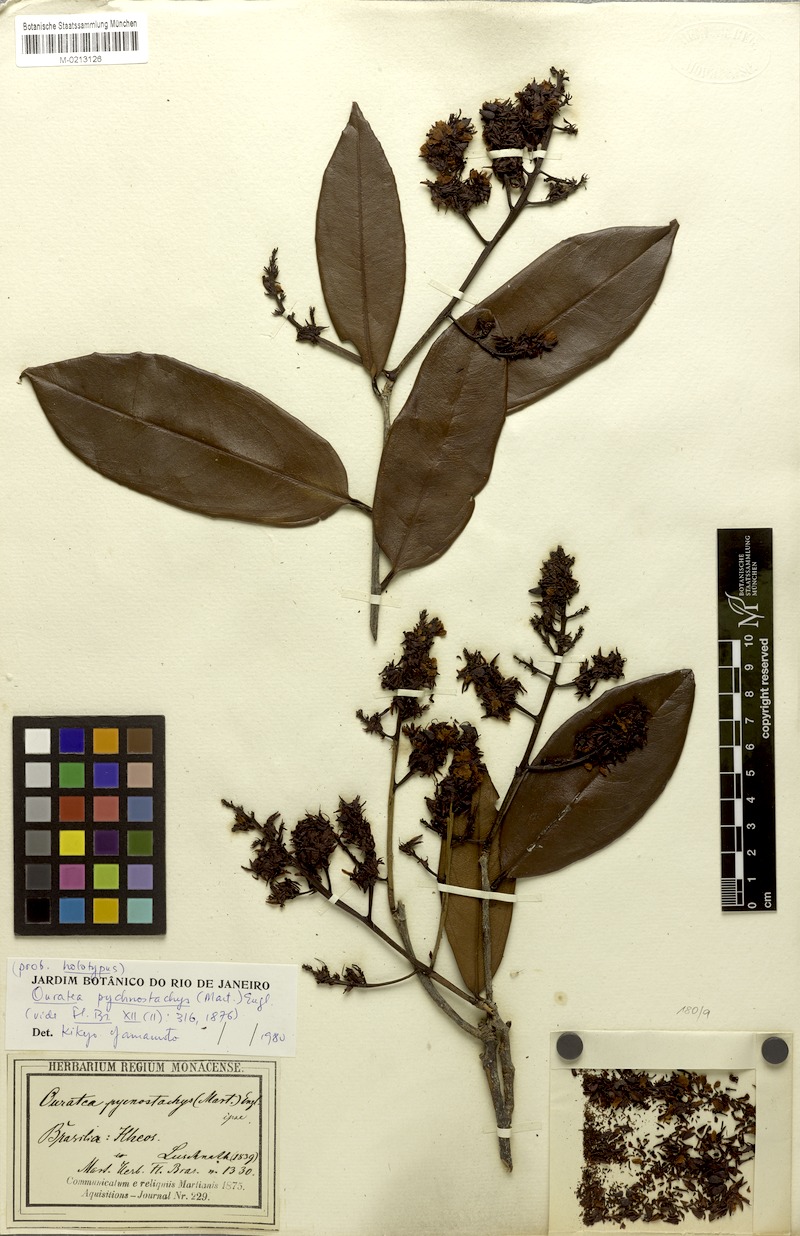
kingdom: Plantae
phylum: Tracheophyta
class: Magnoliopsida
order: Malpighiales
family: Ochnaceae
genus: Ouratea
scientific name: Ouratea pycnostachys
